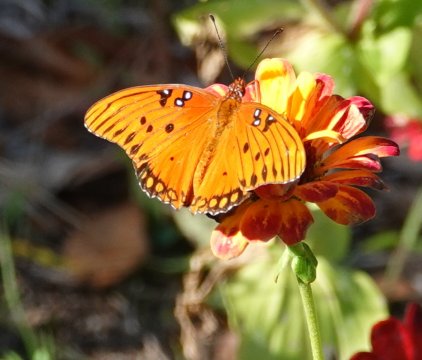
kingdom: Animalia
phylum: Arthropoda
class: Insecta
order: Lepidoptera
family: Nymphalidae
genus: Dione
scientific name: Dione vanillae
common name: Gulf Fritillary
